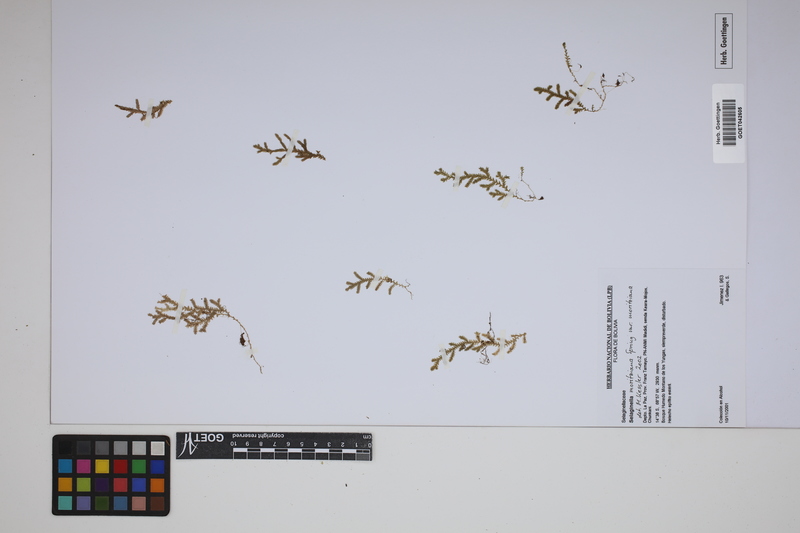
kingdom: Plantae
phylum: Tracheophyta
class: Lycopodiopsida
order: Selaginellales
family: Selaginellaceae
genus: Selaginella
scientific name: Selaginella moritziana
